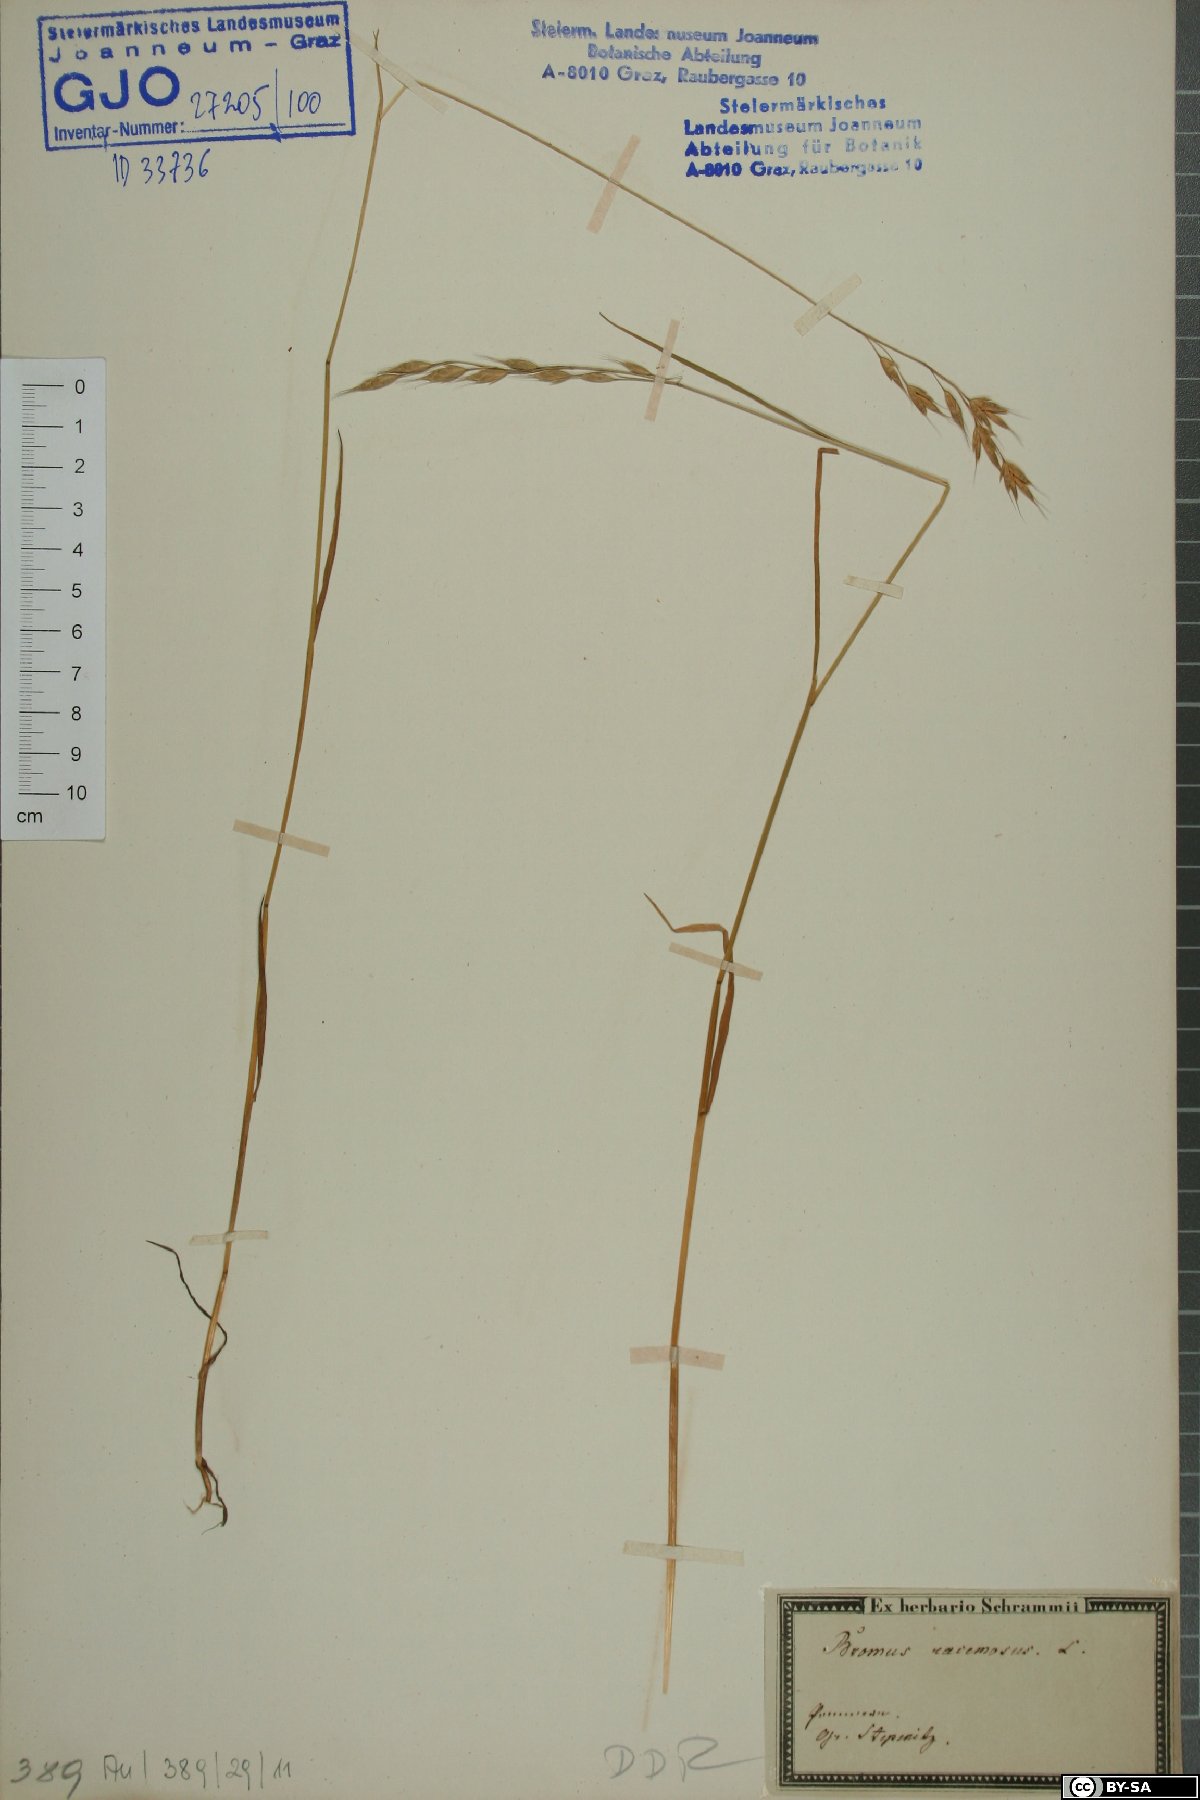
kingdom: Plantae
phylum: Tracheophyta
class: Liliopsida
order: Poales
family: Poaceae
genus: Bromus
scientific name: Bromus racemosus
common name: Bald brome
